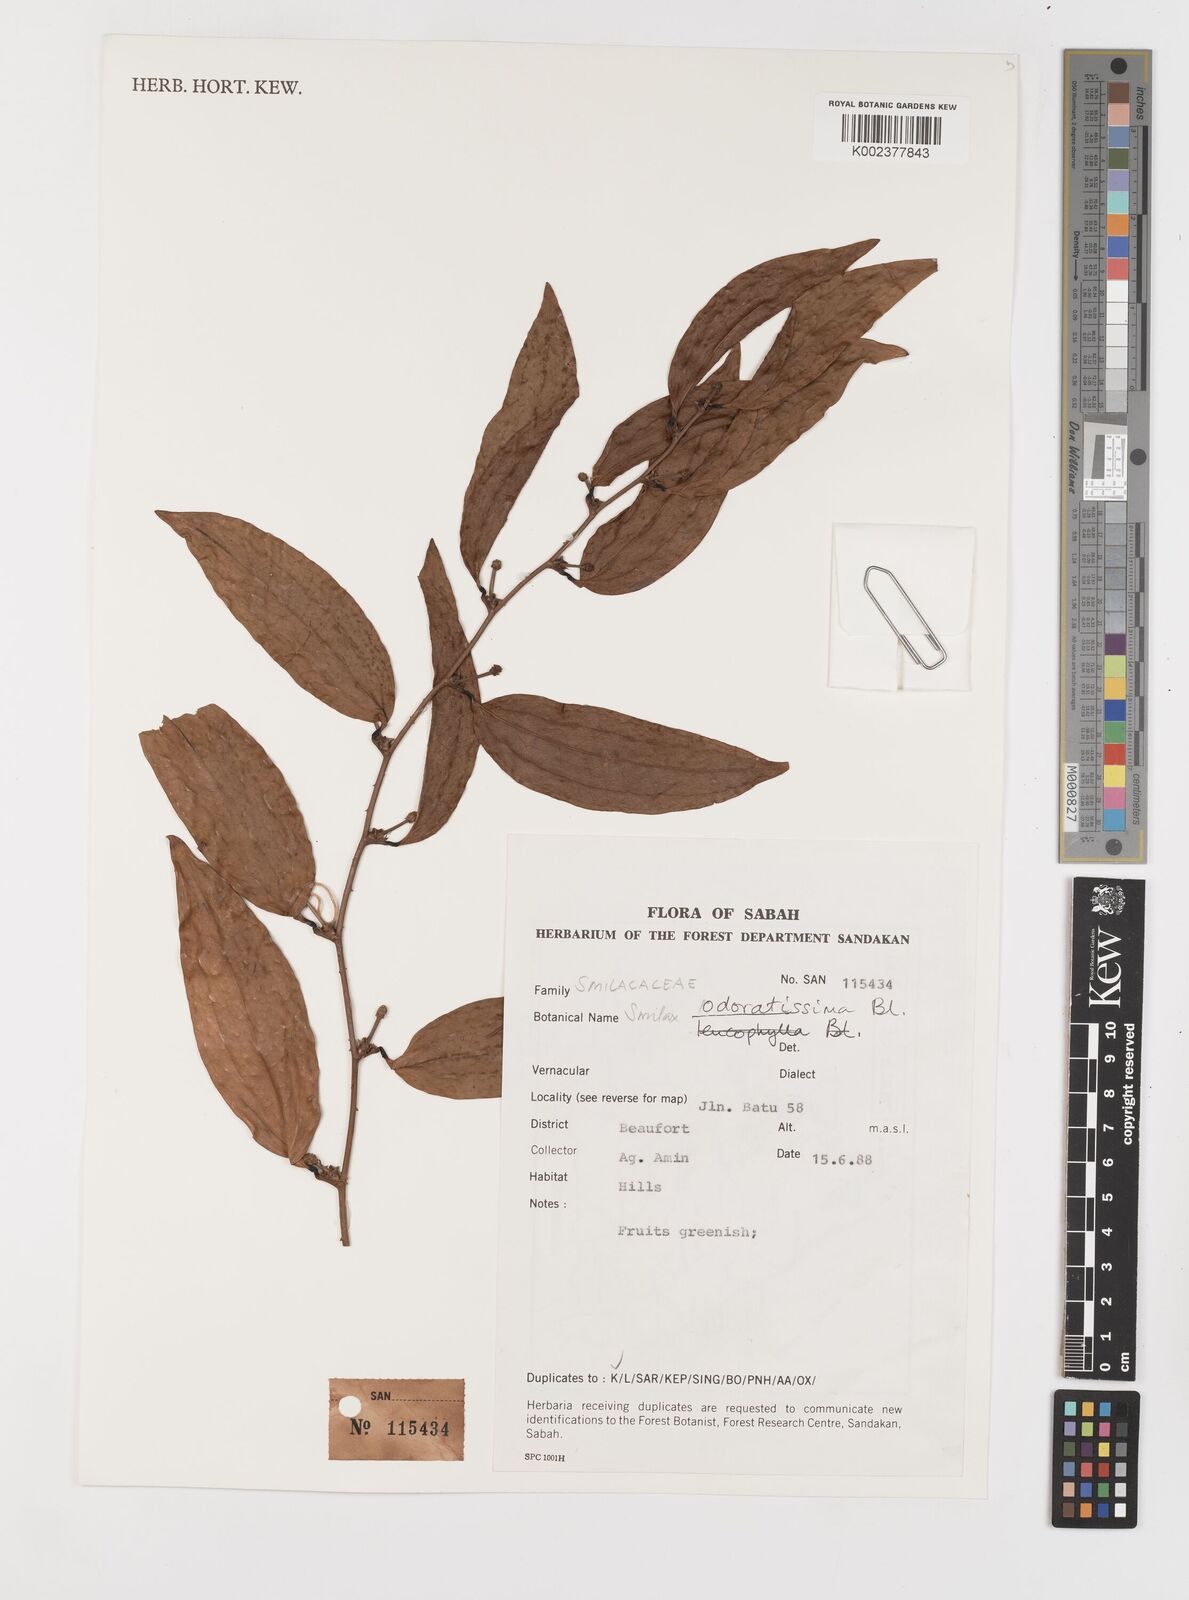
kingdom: Plantae
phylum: Tracheophyta
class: Liliopsida
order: Liliales
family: Smilacaceae
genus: Smilax
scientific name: Smilax
